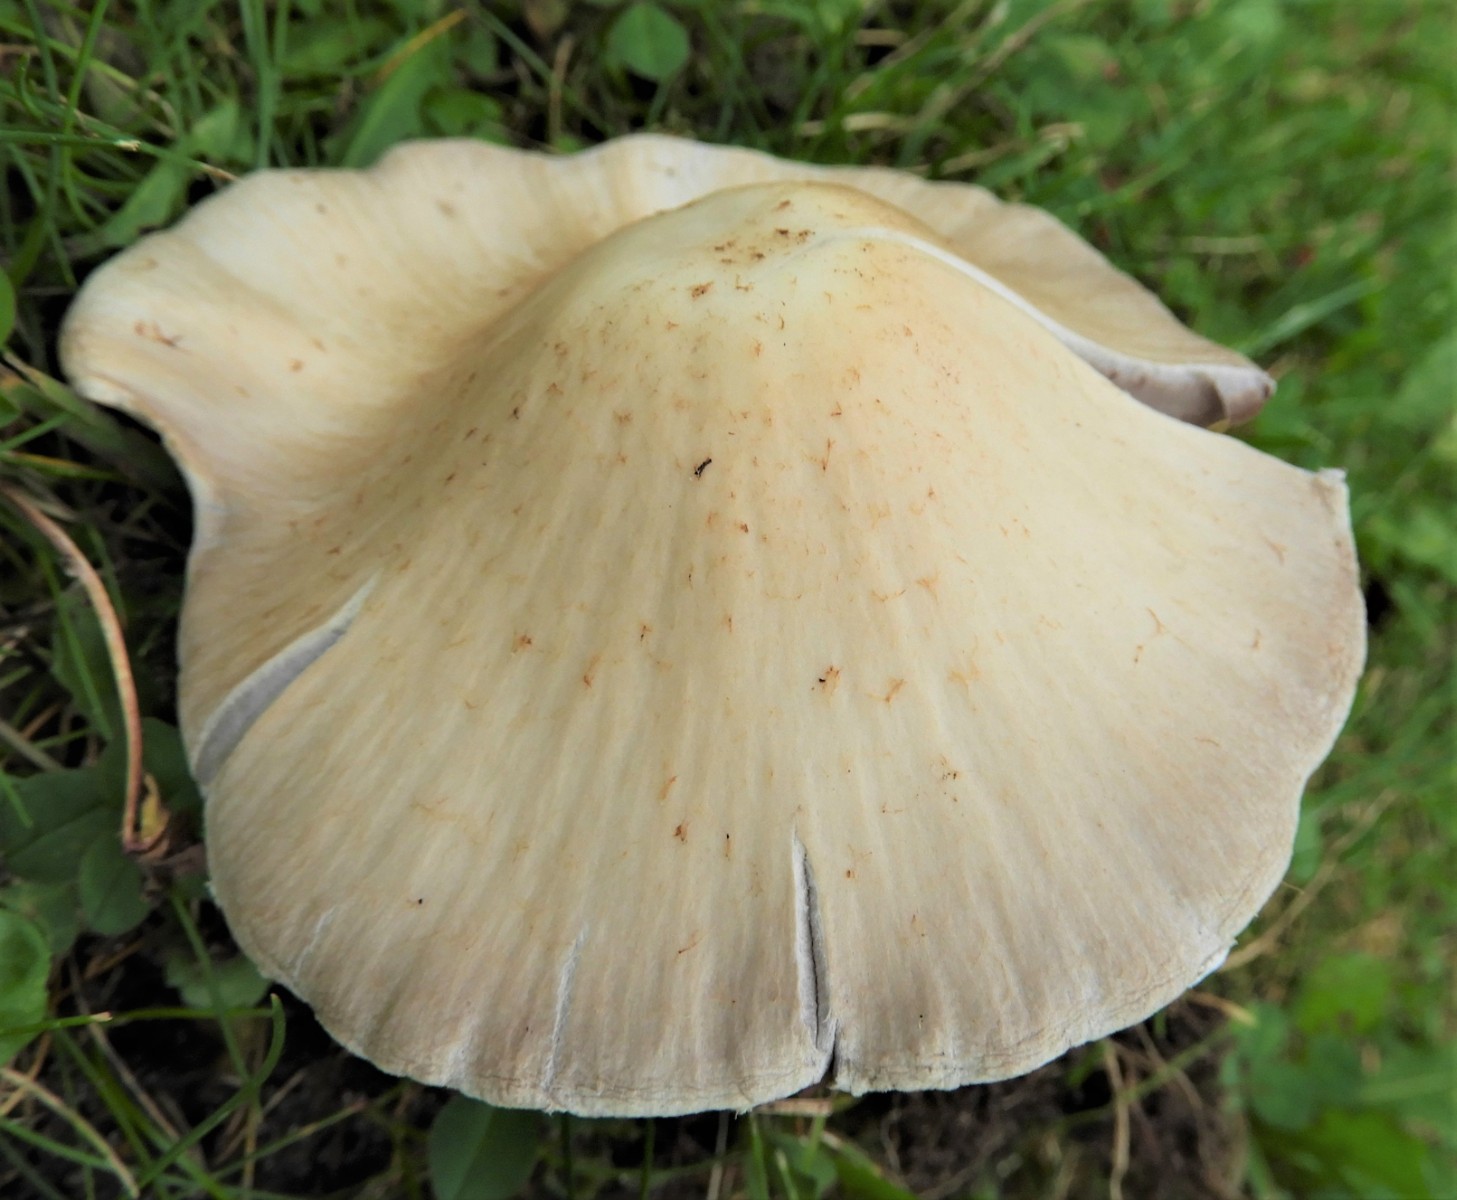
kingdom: Fungi
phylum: Basidiomycota
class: Agaricomycetes
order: Agaricales
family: Psathyrellaceae
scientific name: Psathyrellaceae
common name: mørkhatfamilien
